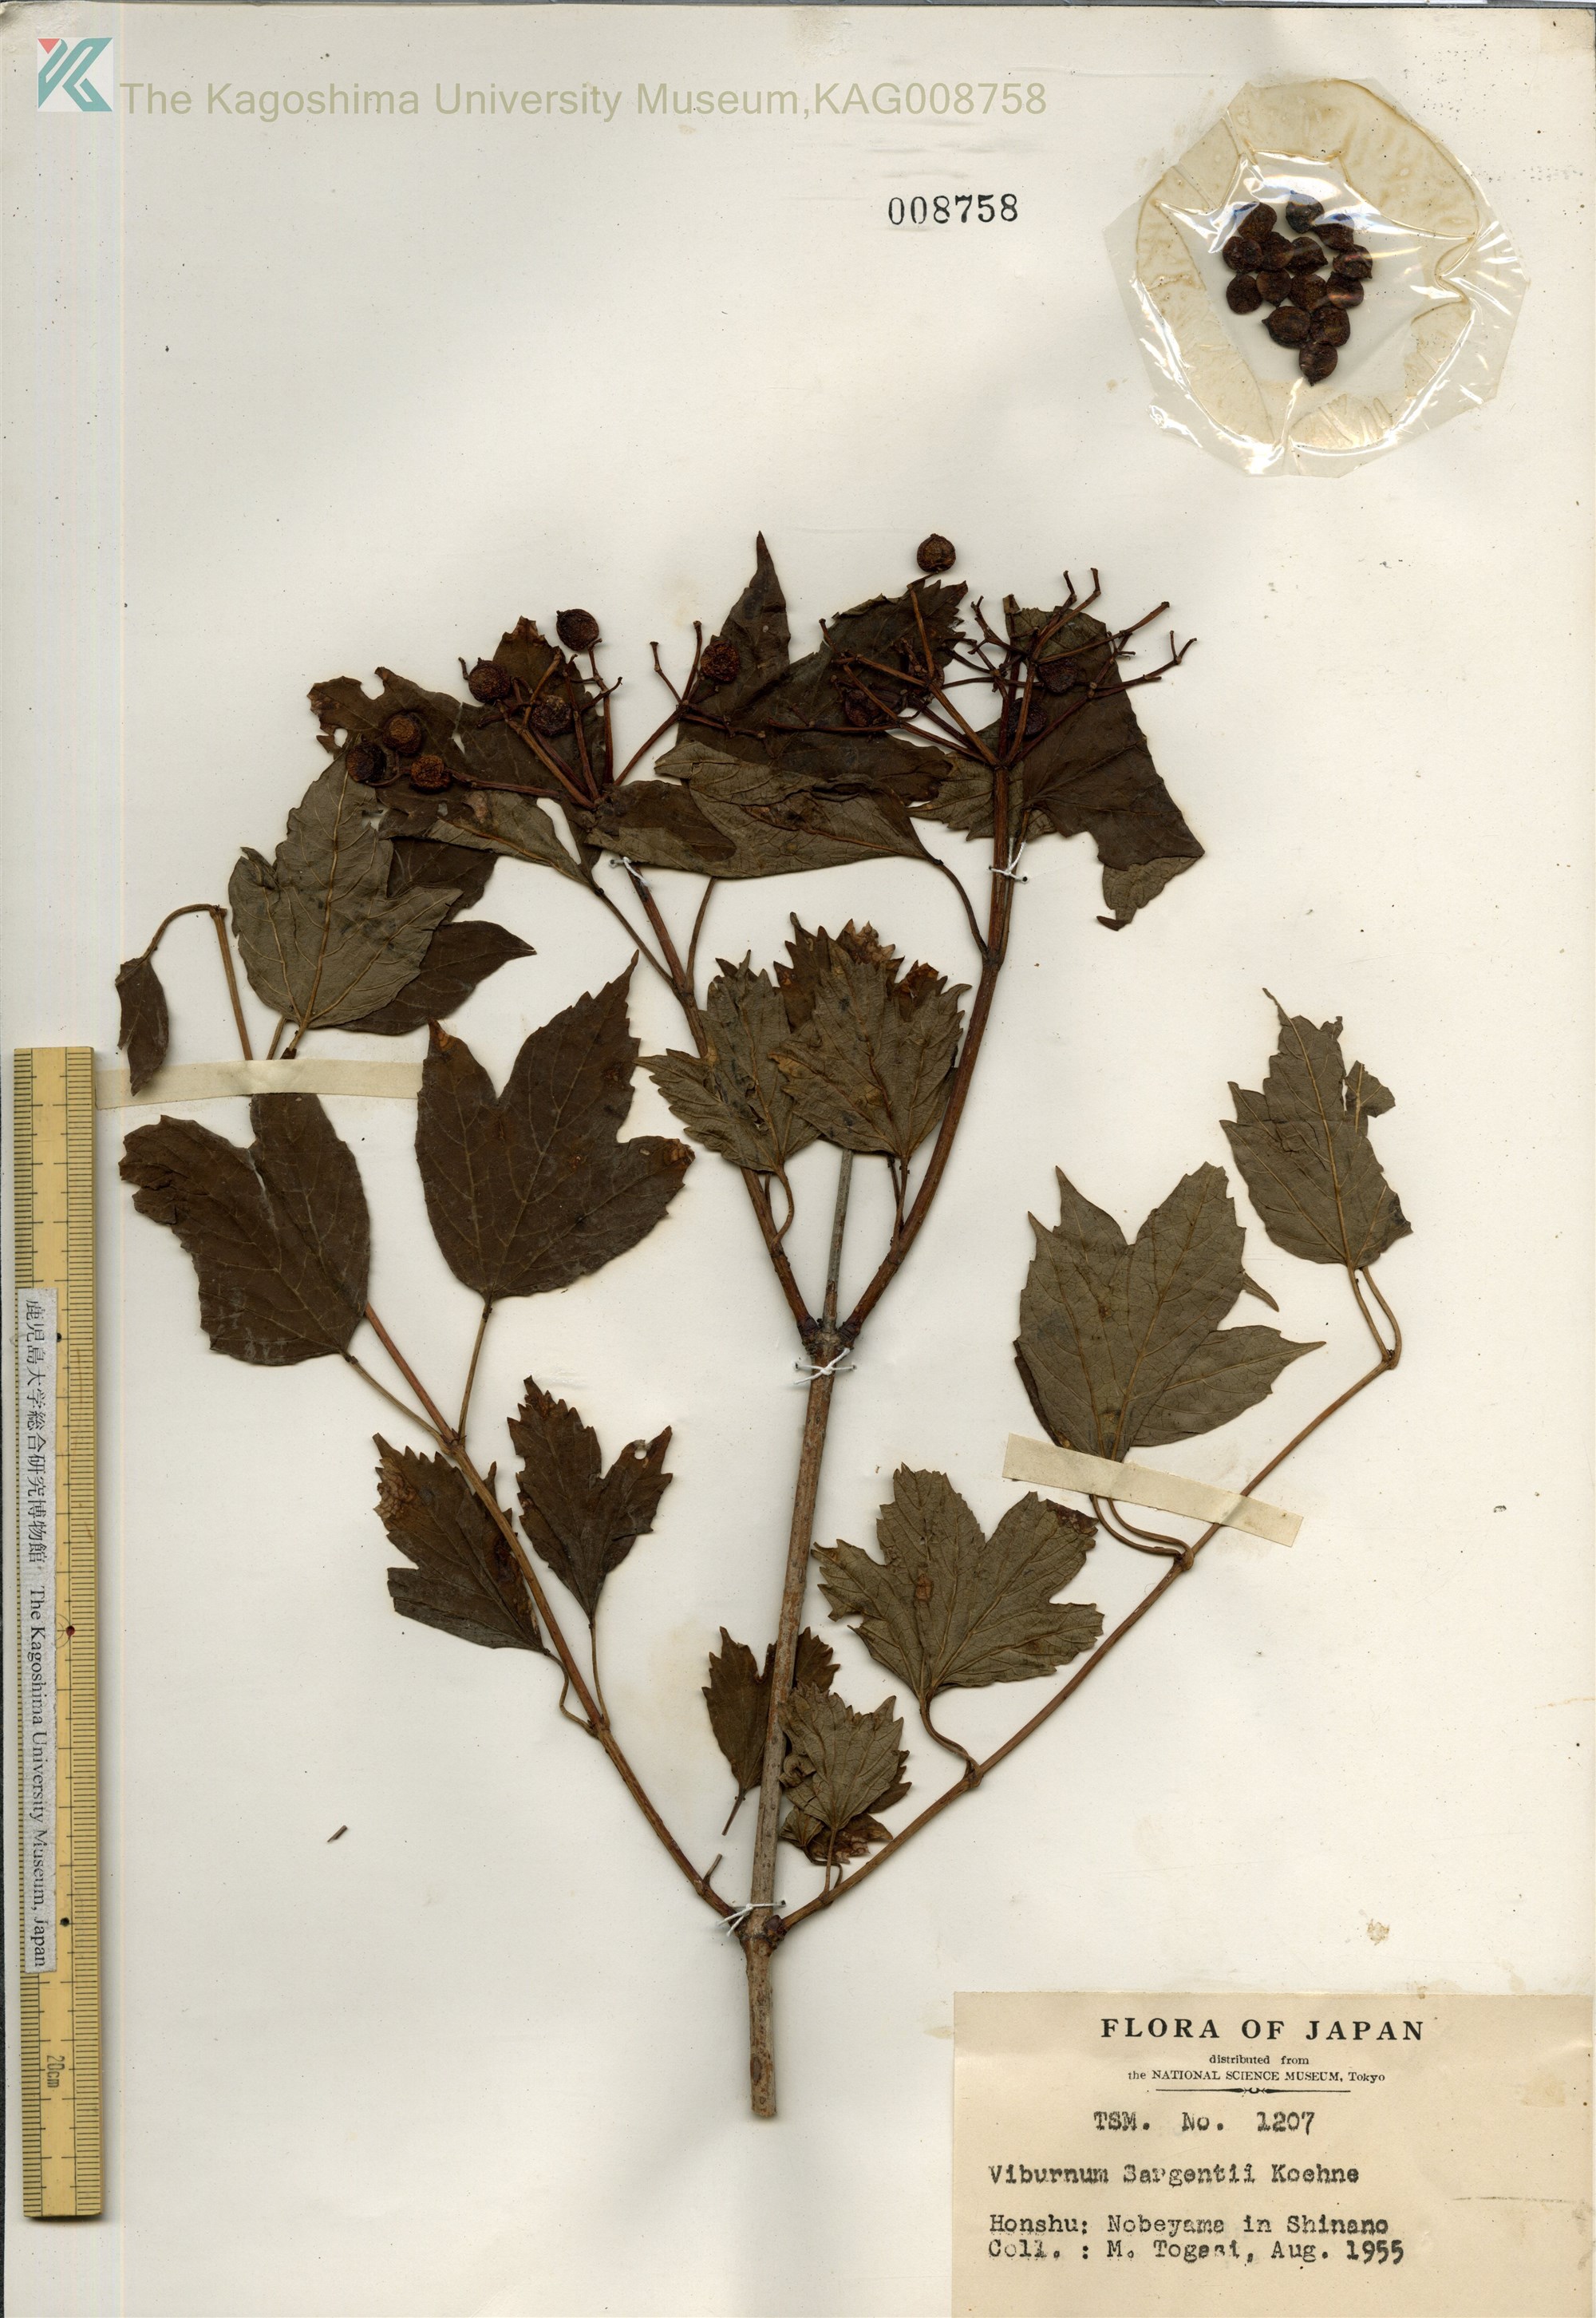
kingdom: Plantae
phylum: Tracheophyta
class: Magnoliopsida
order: Dipsacales
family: Viburnaceae
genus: Viburnum
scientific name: Viburnum opulus
